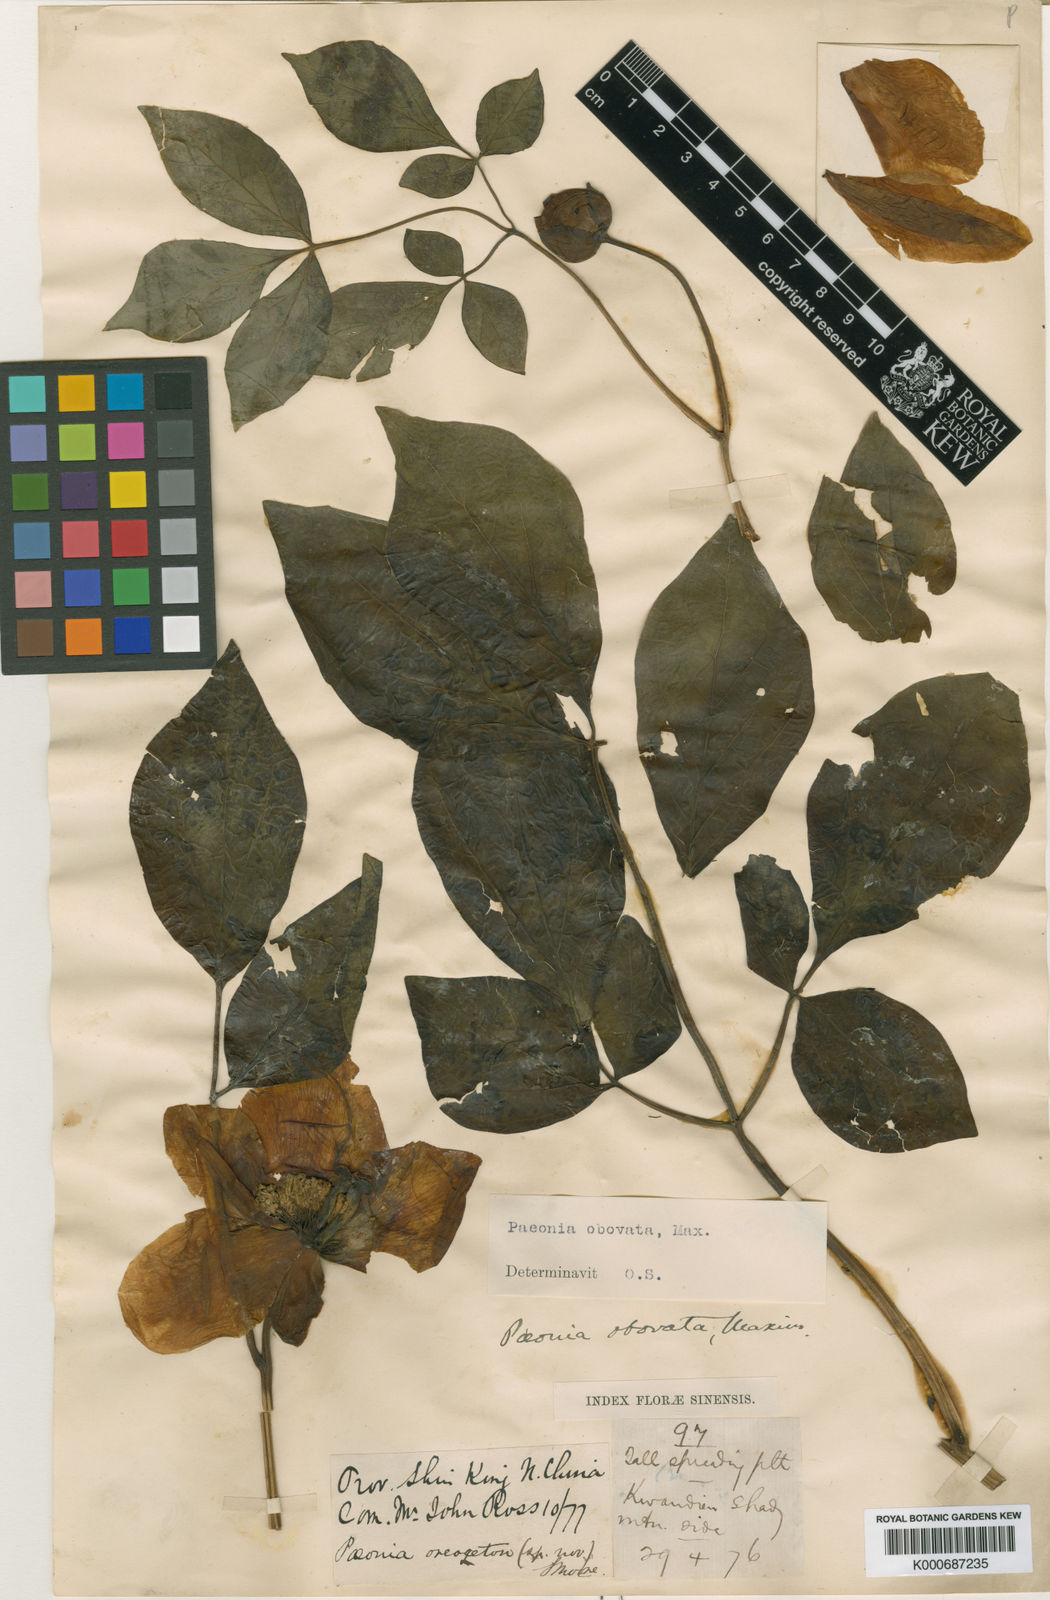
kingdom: Plantae
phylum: Tracheophyta
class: Magnoliopsida
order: Saxifragales
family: Paeoniaceae
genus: Paeonia
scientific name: Paeonia obovata
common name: Chinese peony
